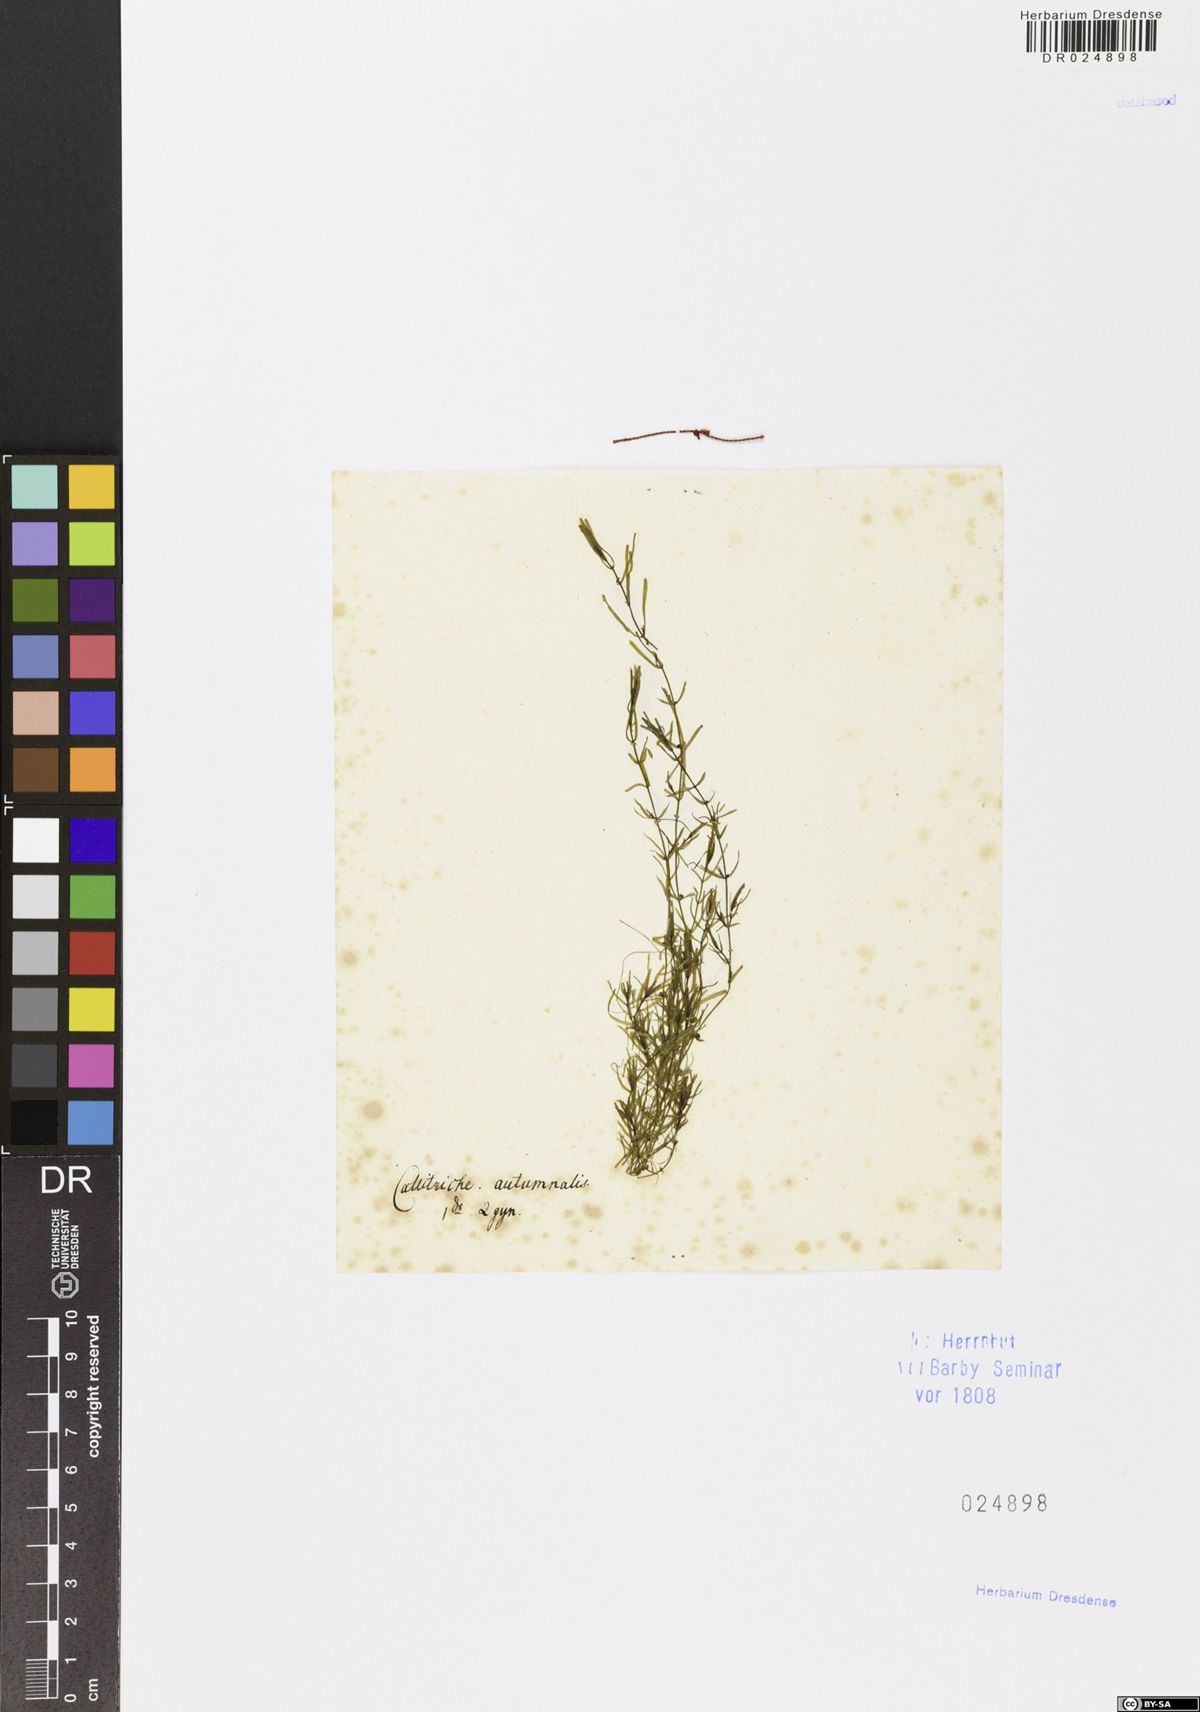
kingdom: Plantae
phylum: Tracheophyta
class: Magnoliopsida
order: Lamiales
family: Plantaginaceae
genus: Callitriche
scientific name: Callitriche hamulata
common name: Intermediate water-starwort
